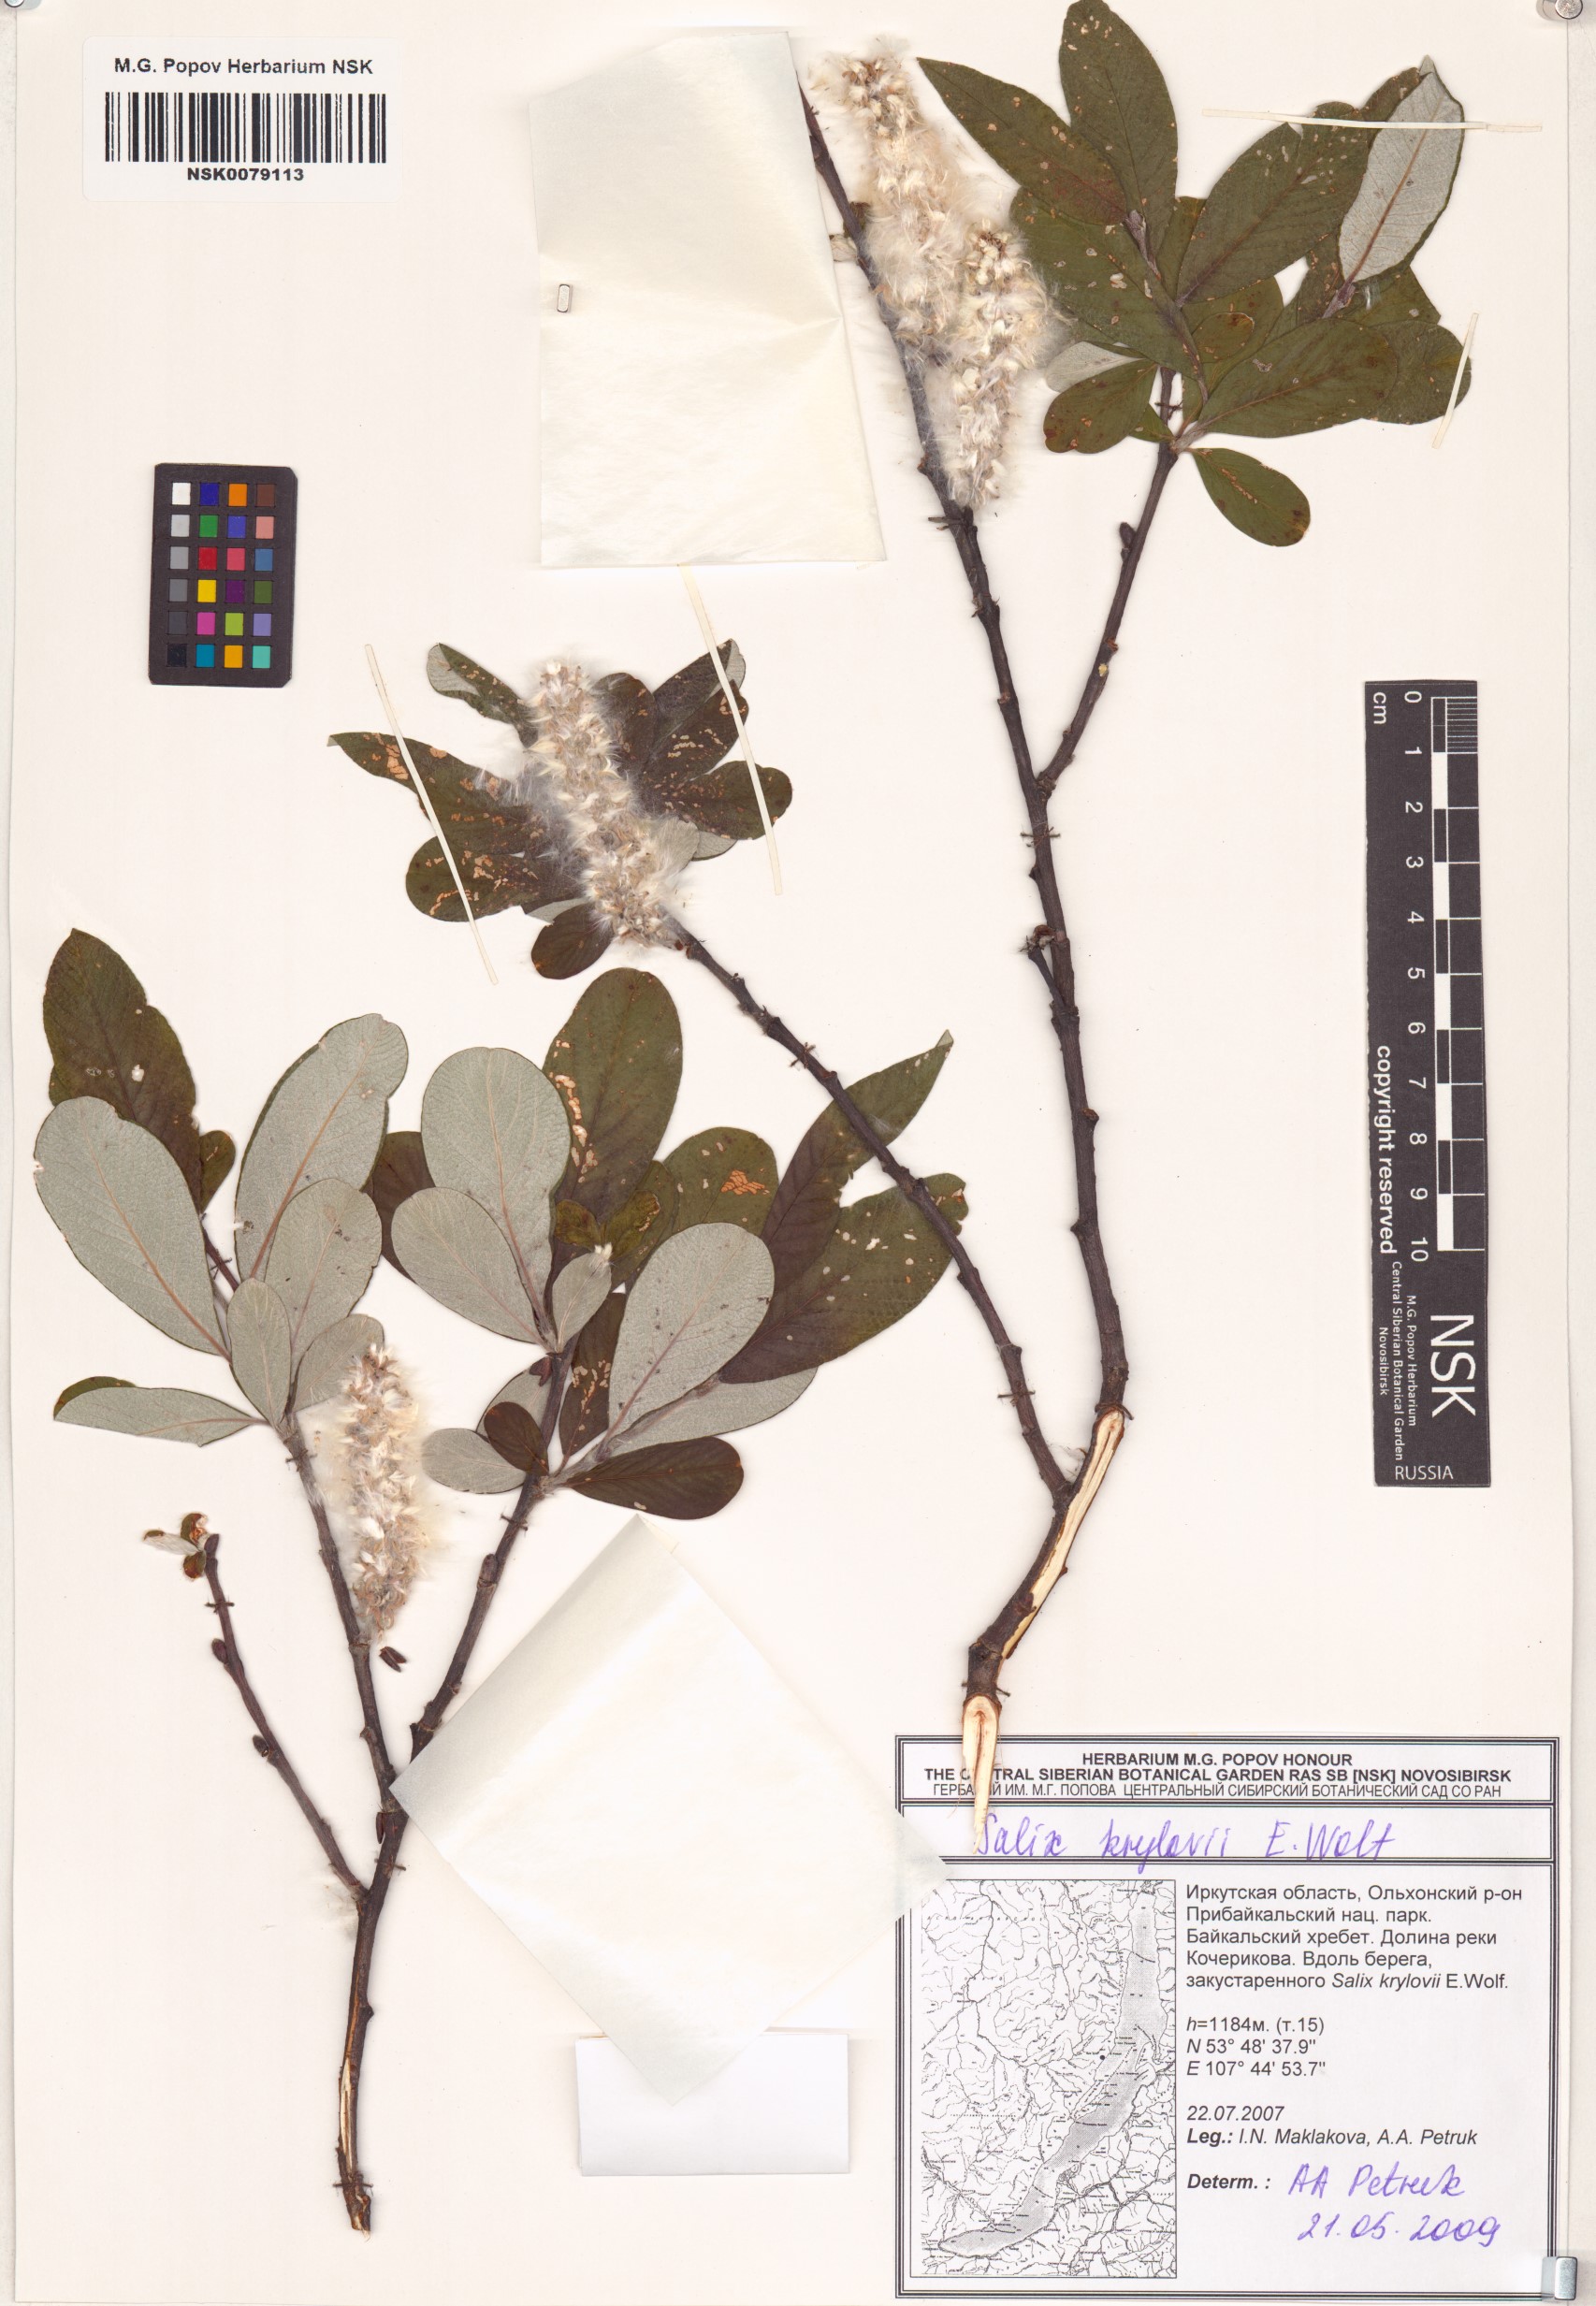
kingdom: Plantae
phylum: Tracheophyta
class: Magnoliopsida
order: Malpighiales
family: Salicaceae
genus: Salix
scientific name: Salix krylovii
